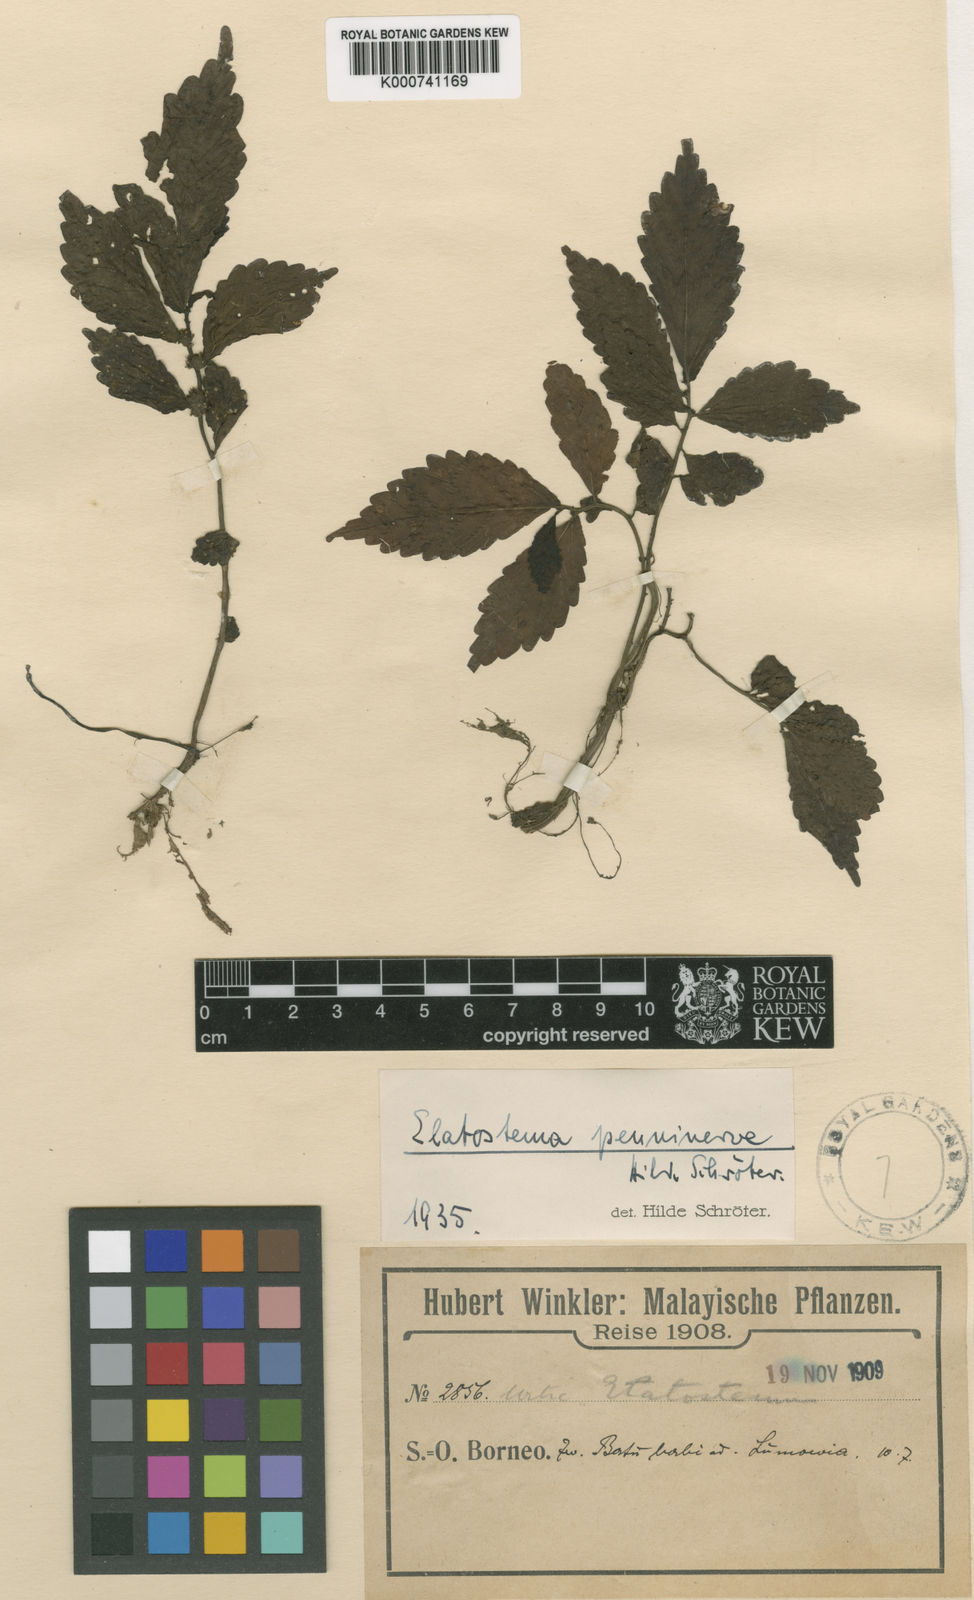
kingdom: Plantae
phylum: Tracheophyta
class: Magnoliopsida
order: Rosales
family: Urticaceae
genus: Elatostema
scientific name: Elatostema penninerve
